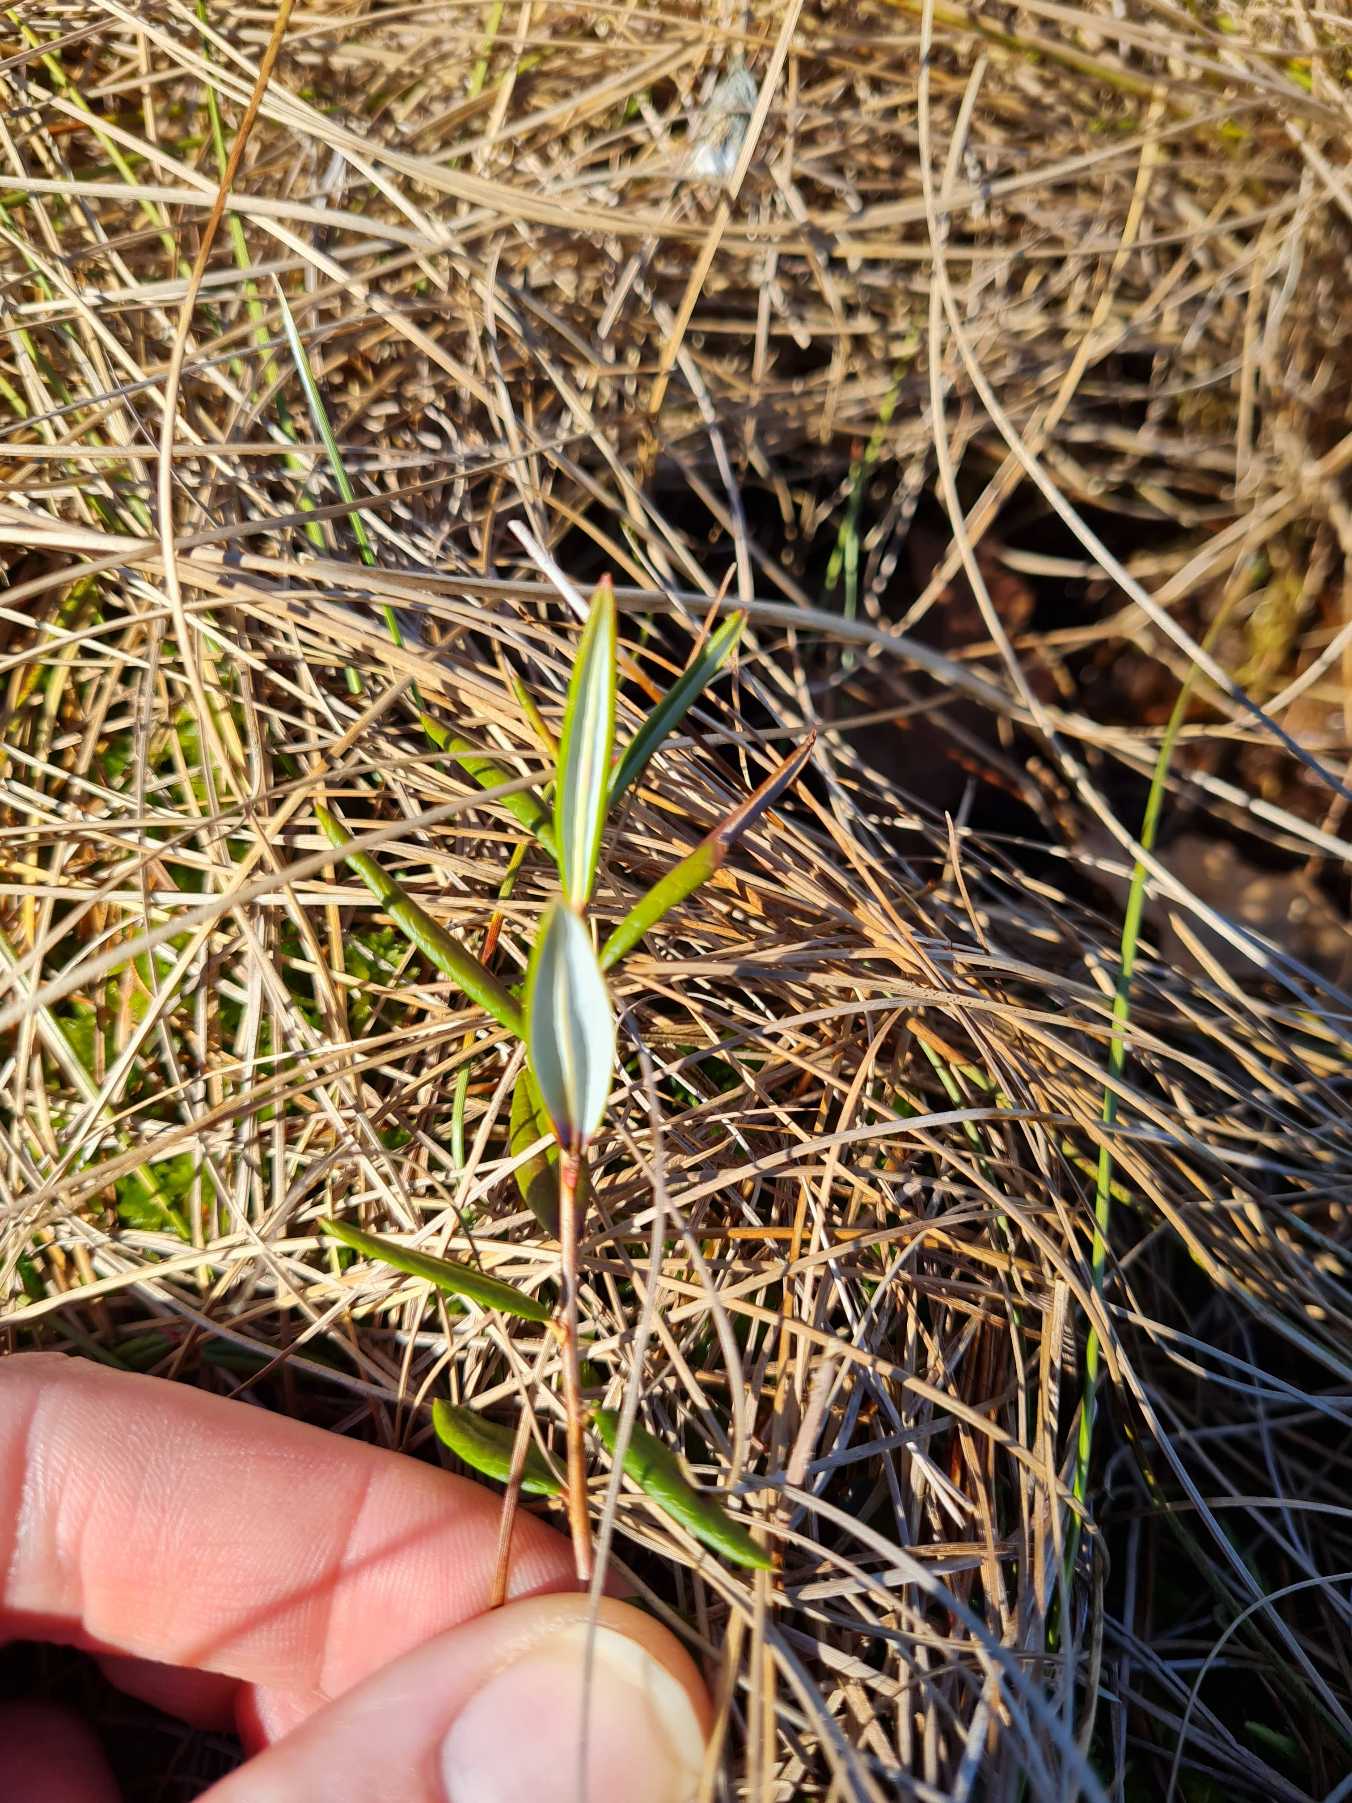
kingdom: Plantae
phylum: Tracheophyta
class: Magnoliopsida
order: Ericales
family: Ericaceae
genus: Andromeda
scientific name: Andromeda polifolia
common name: Rosmarinlyng
